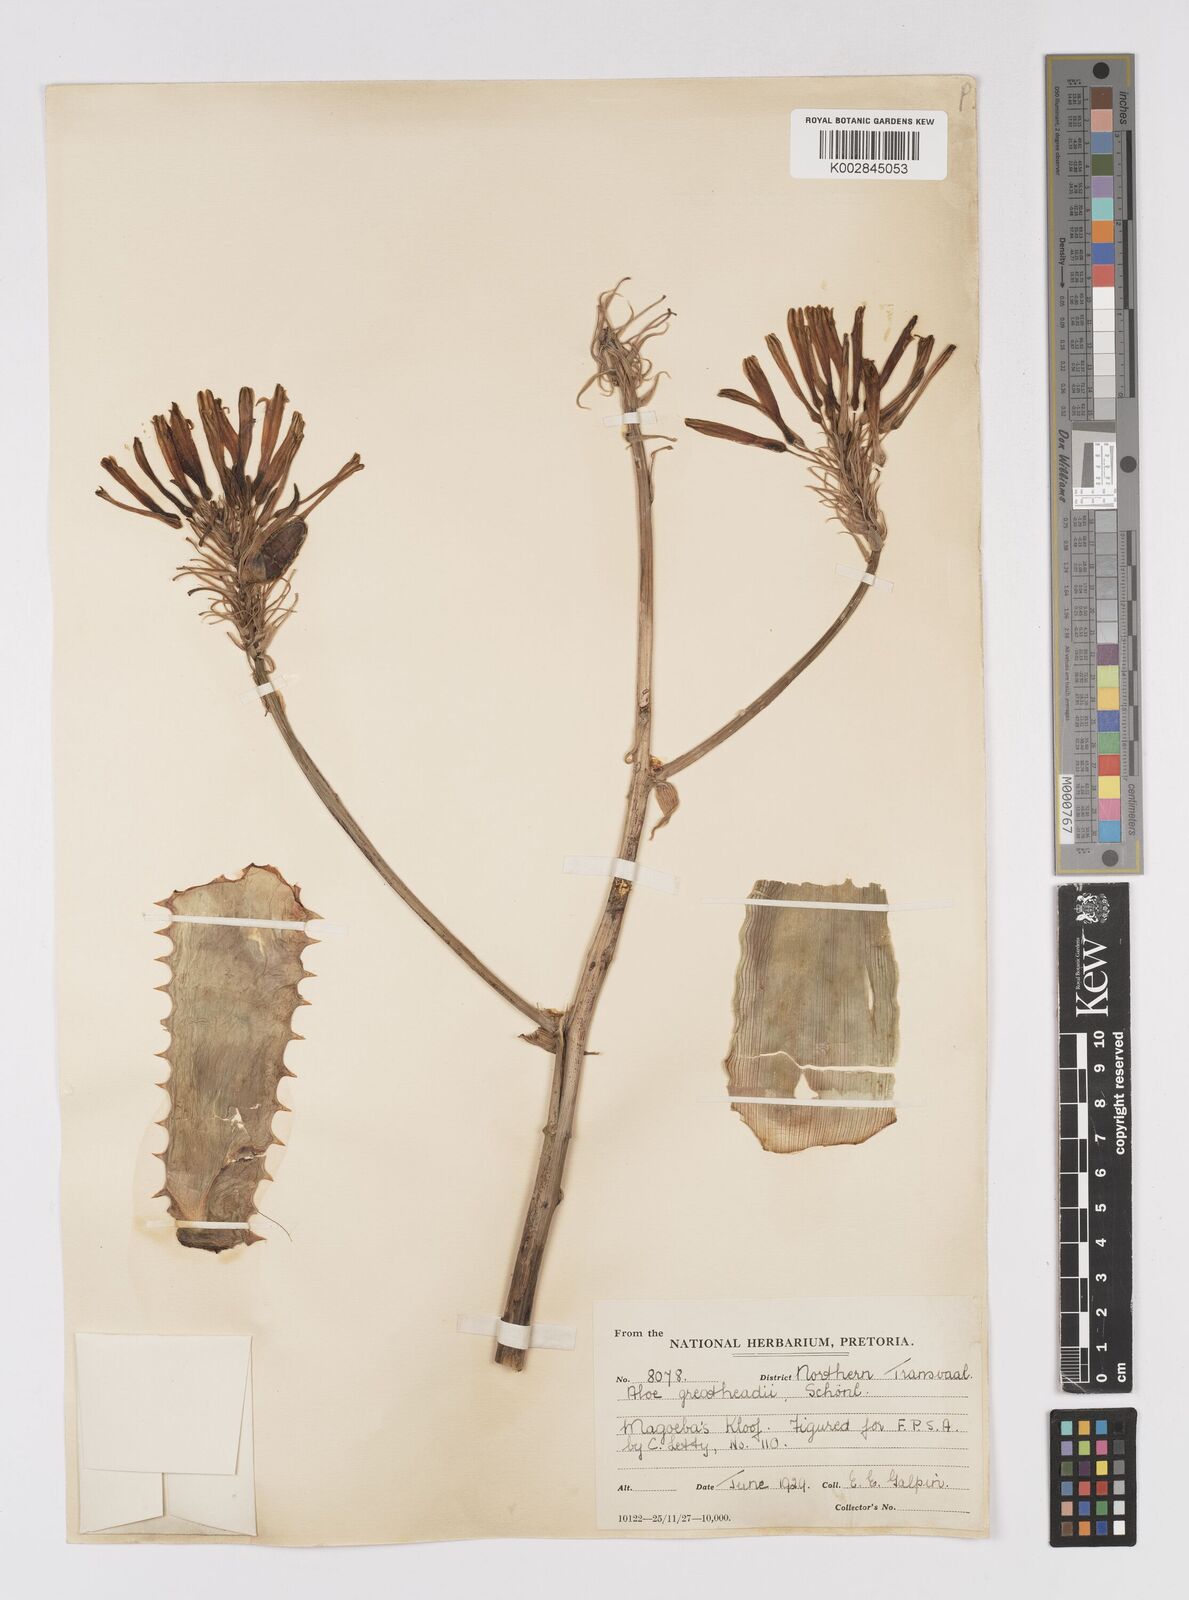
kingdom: Plantae
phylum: Tracheophyta
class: Liliopsida
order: Asparagales
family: Asphodelaceae
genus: Aloe
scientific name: Aloe greatheadii
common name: Greathead's aloe
